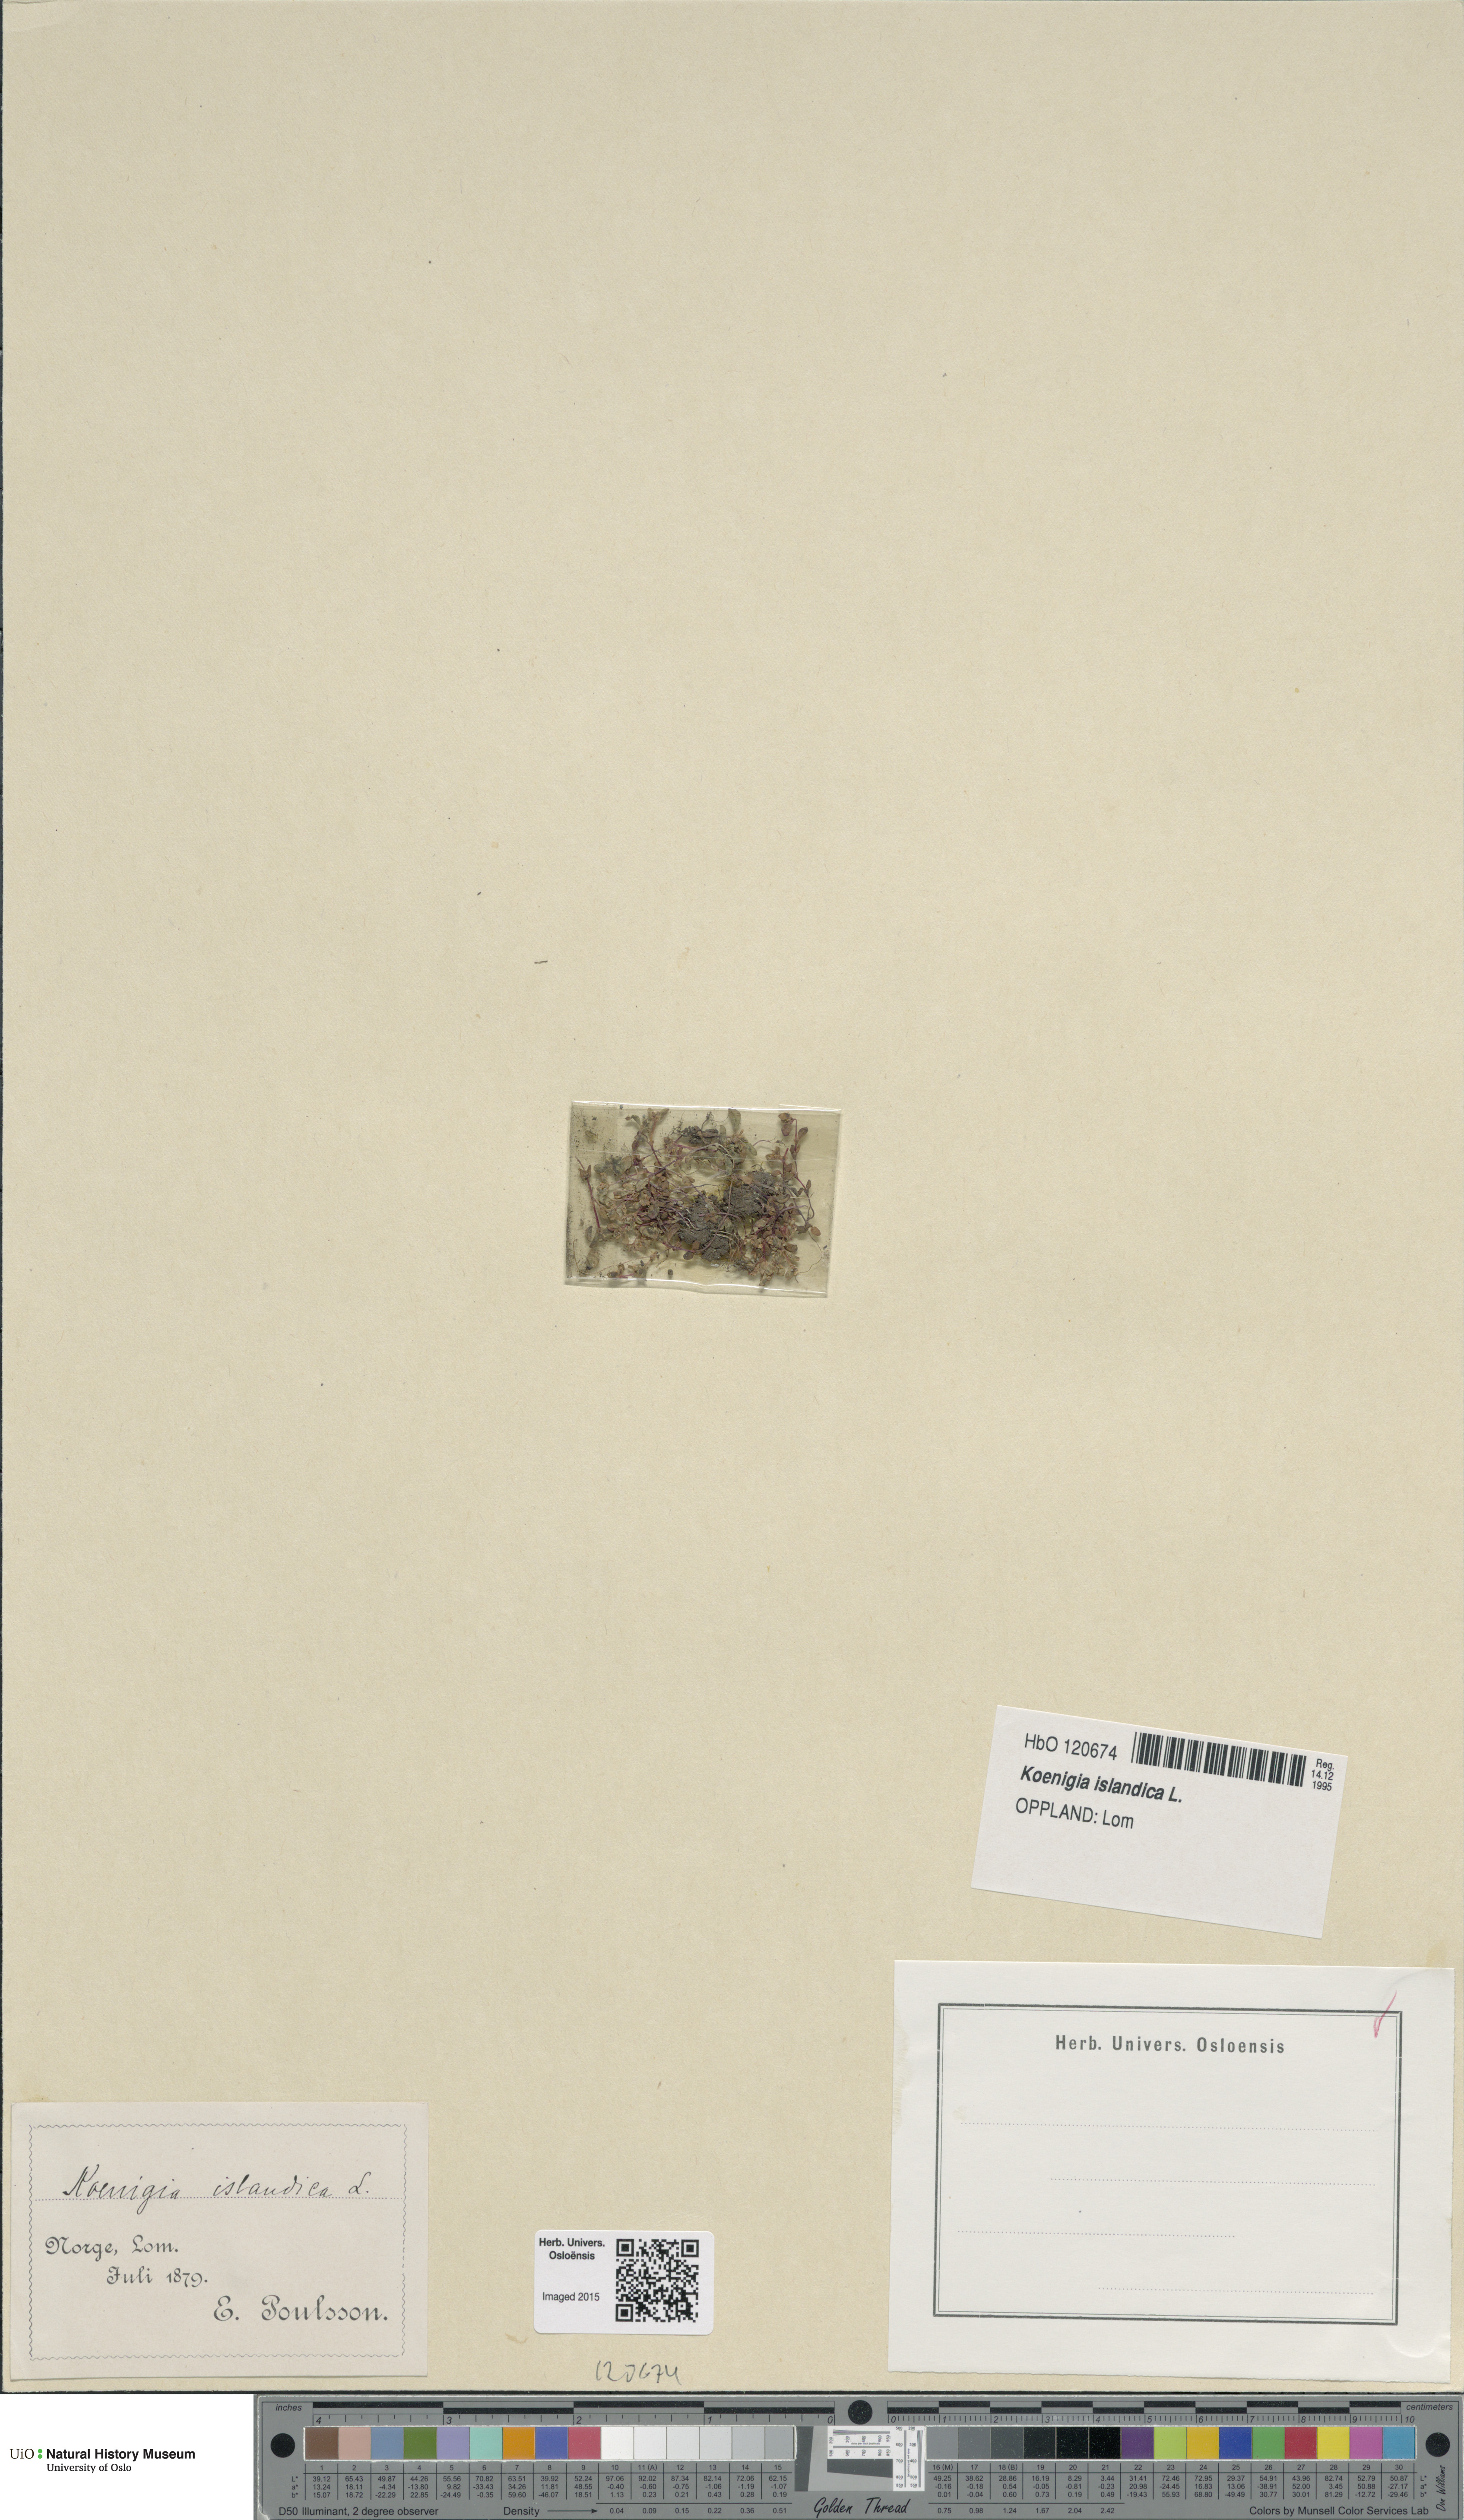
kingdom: Plantae
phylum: Tracheophyta
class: Magnoliopsida
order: Caryophyllales
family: Polygonaceae
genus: Koenigia
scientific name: Koenigia islandica
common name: Iceland-purslane
